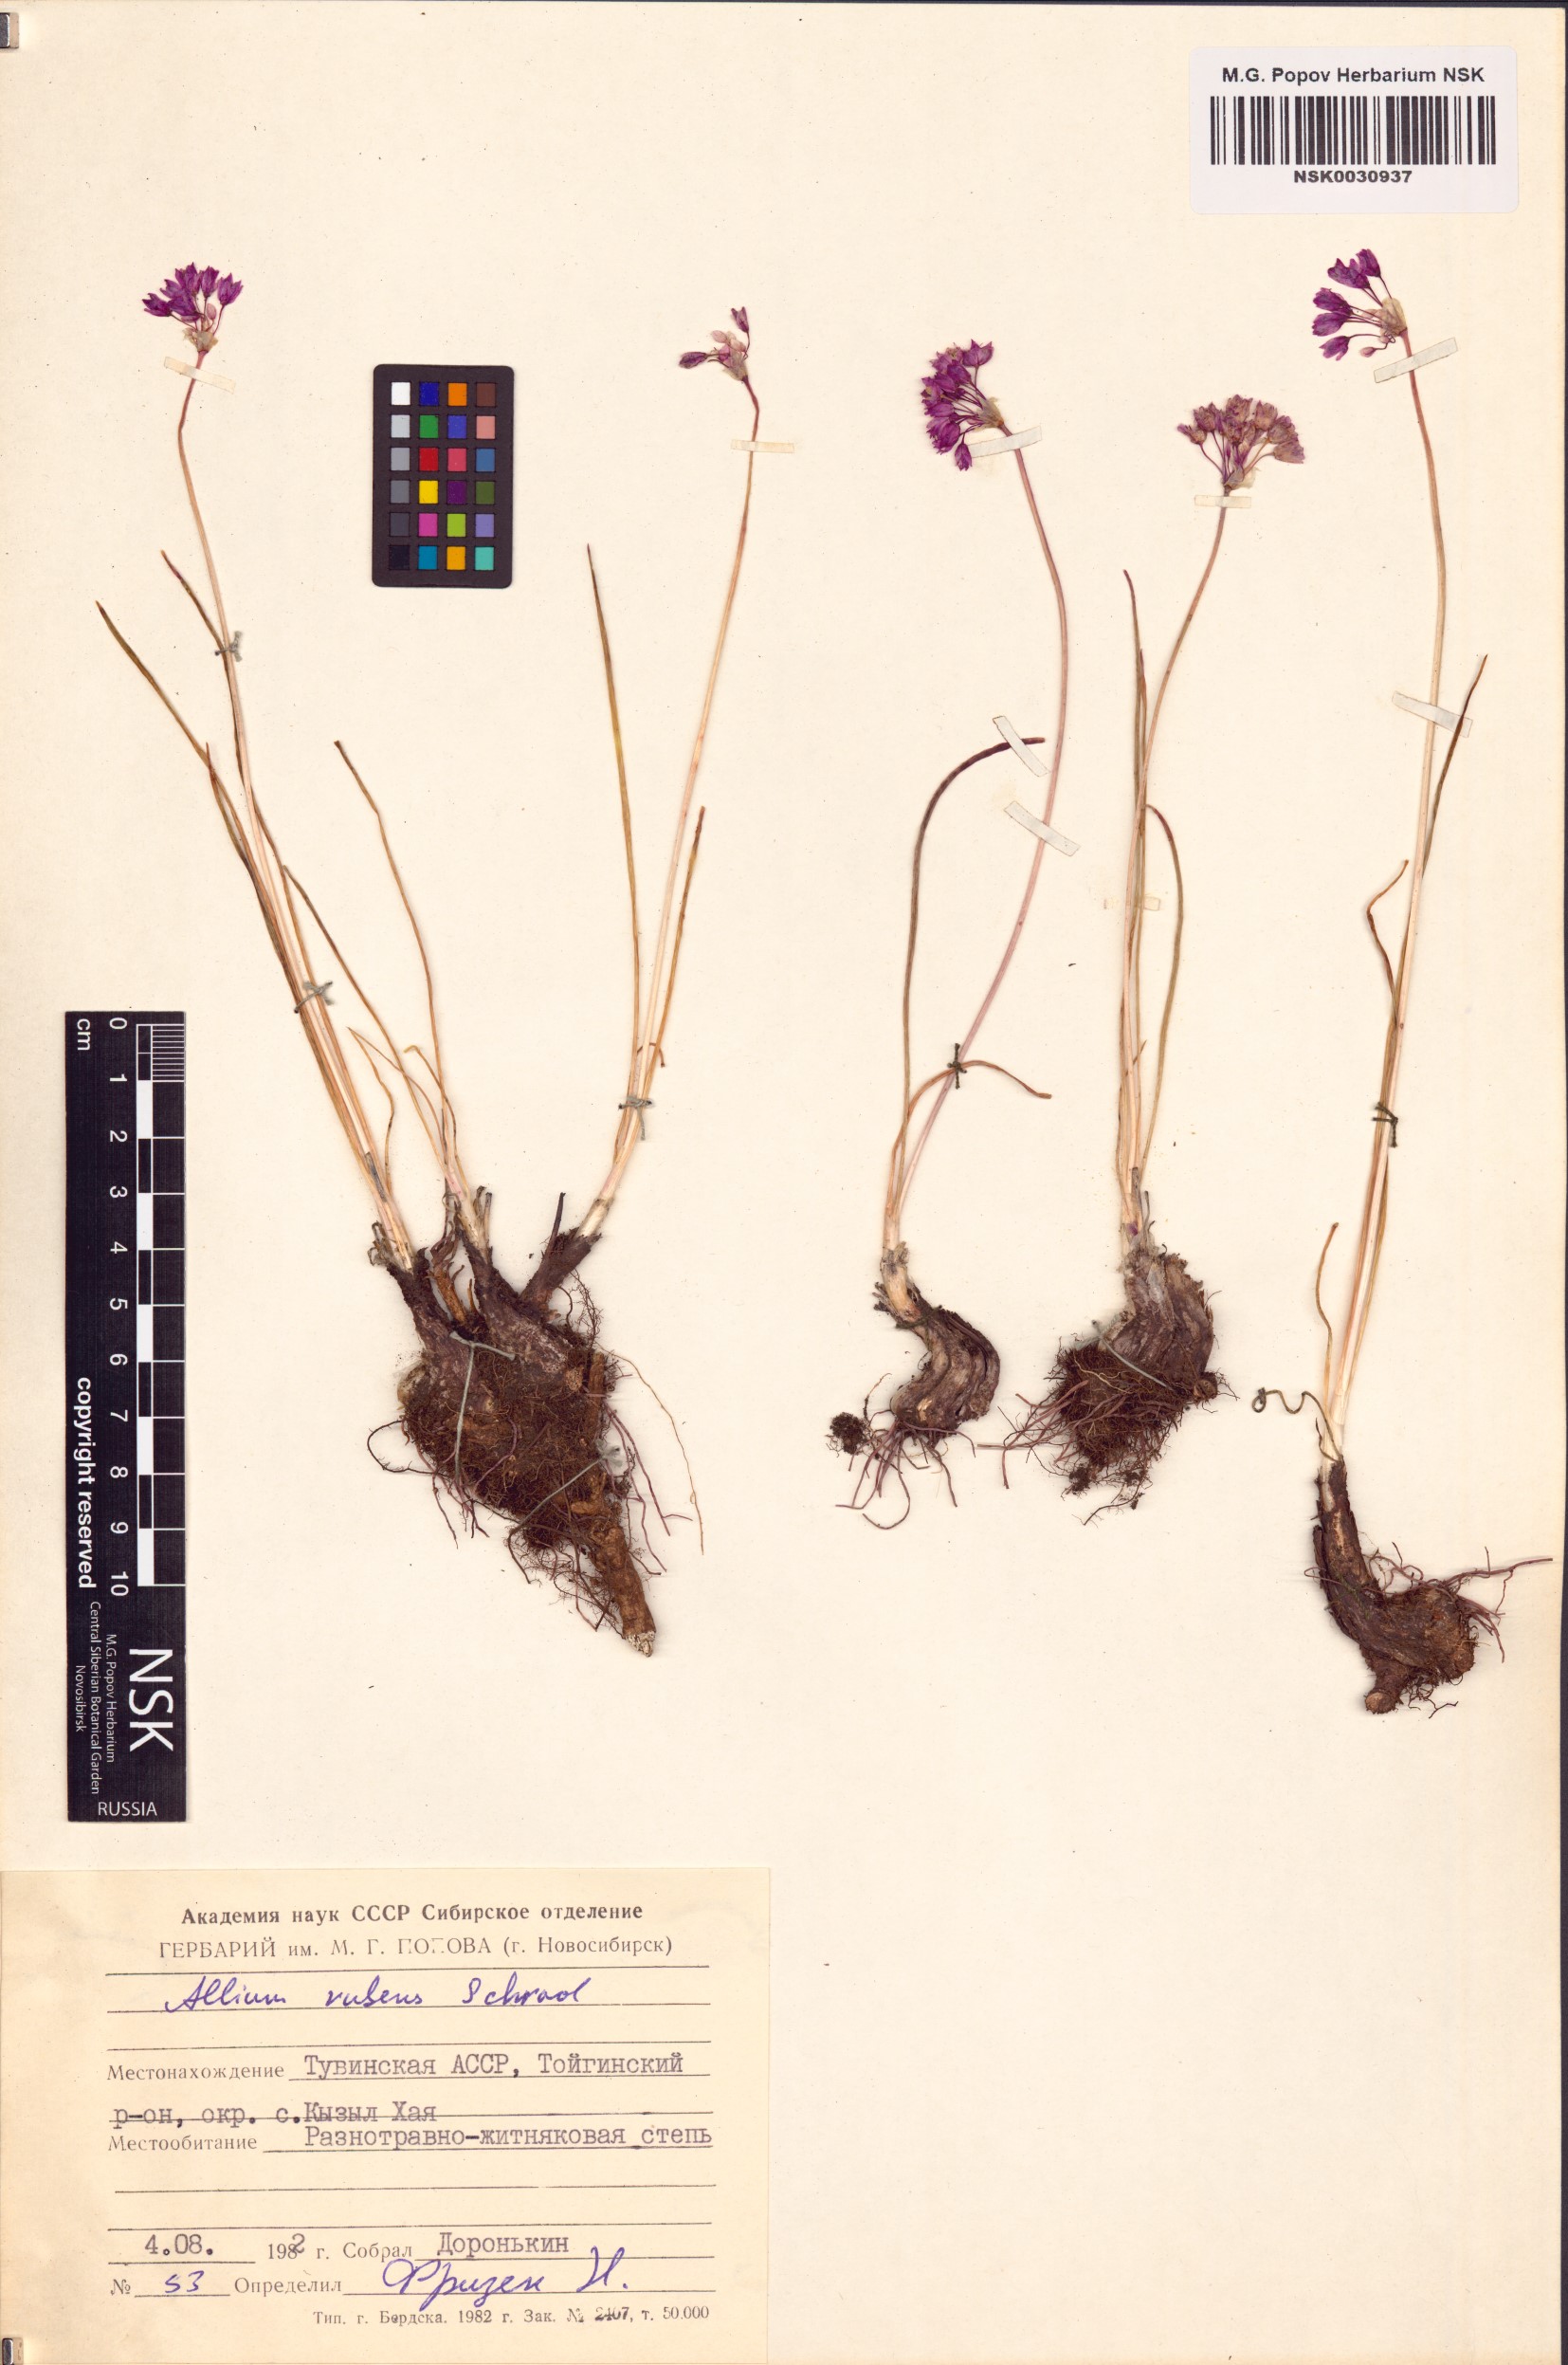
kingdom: Plantae
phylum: Tracheophyta
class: Liliopsida
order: Asparagales
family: Amaryllidaceae
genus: Allium
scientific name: Allium rubens
